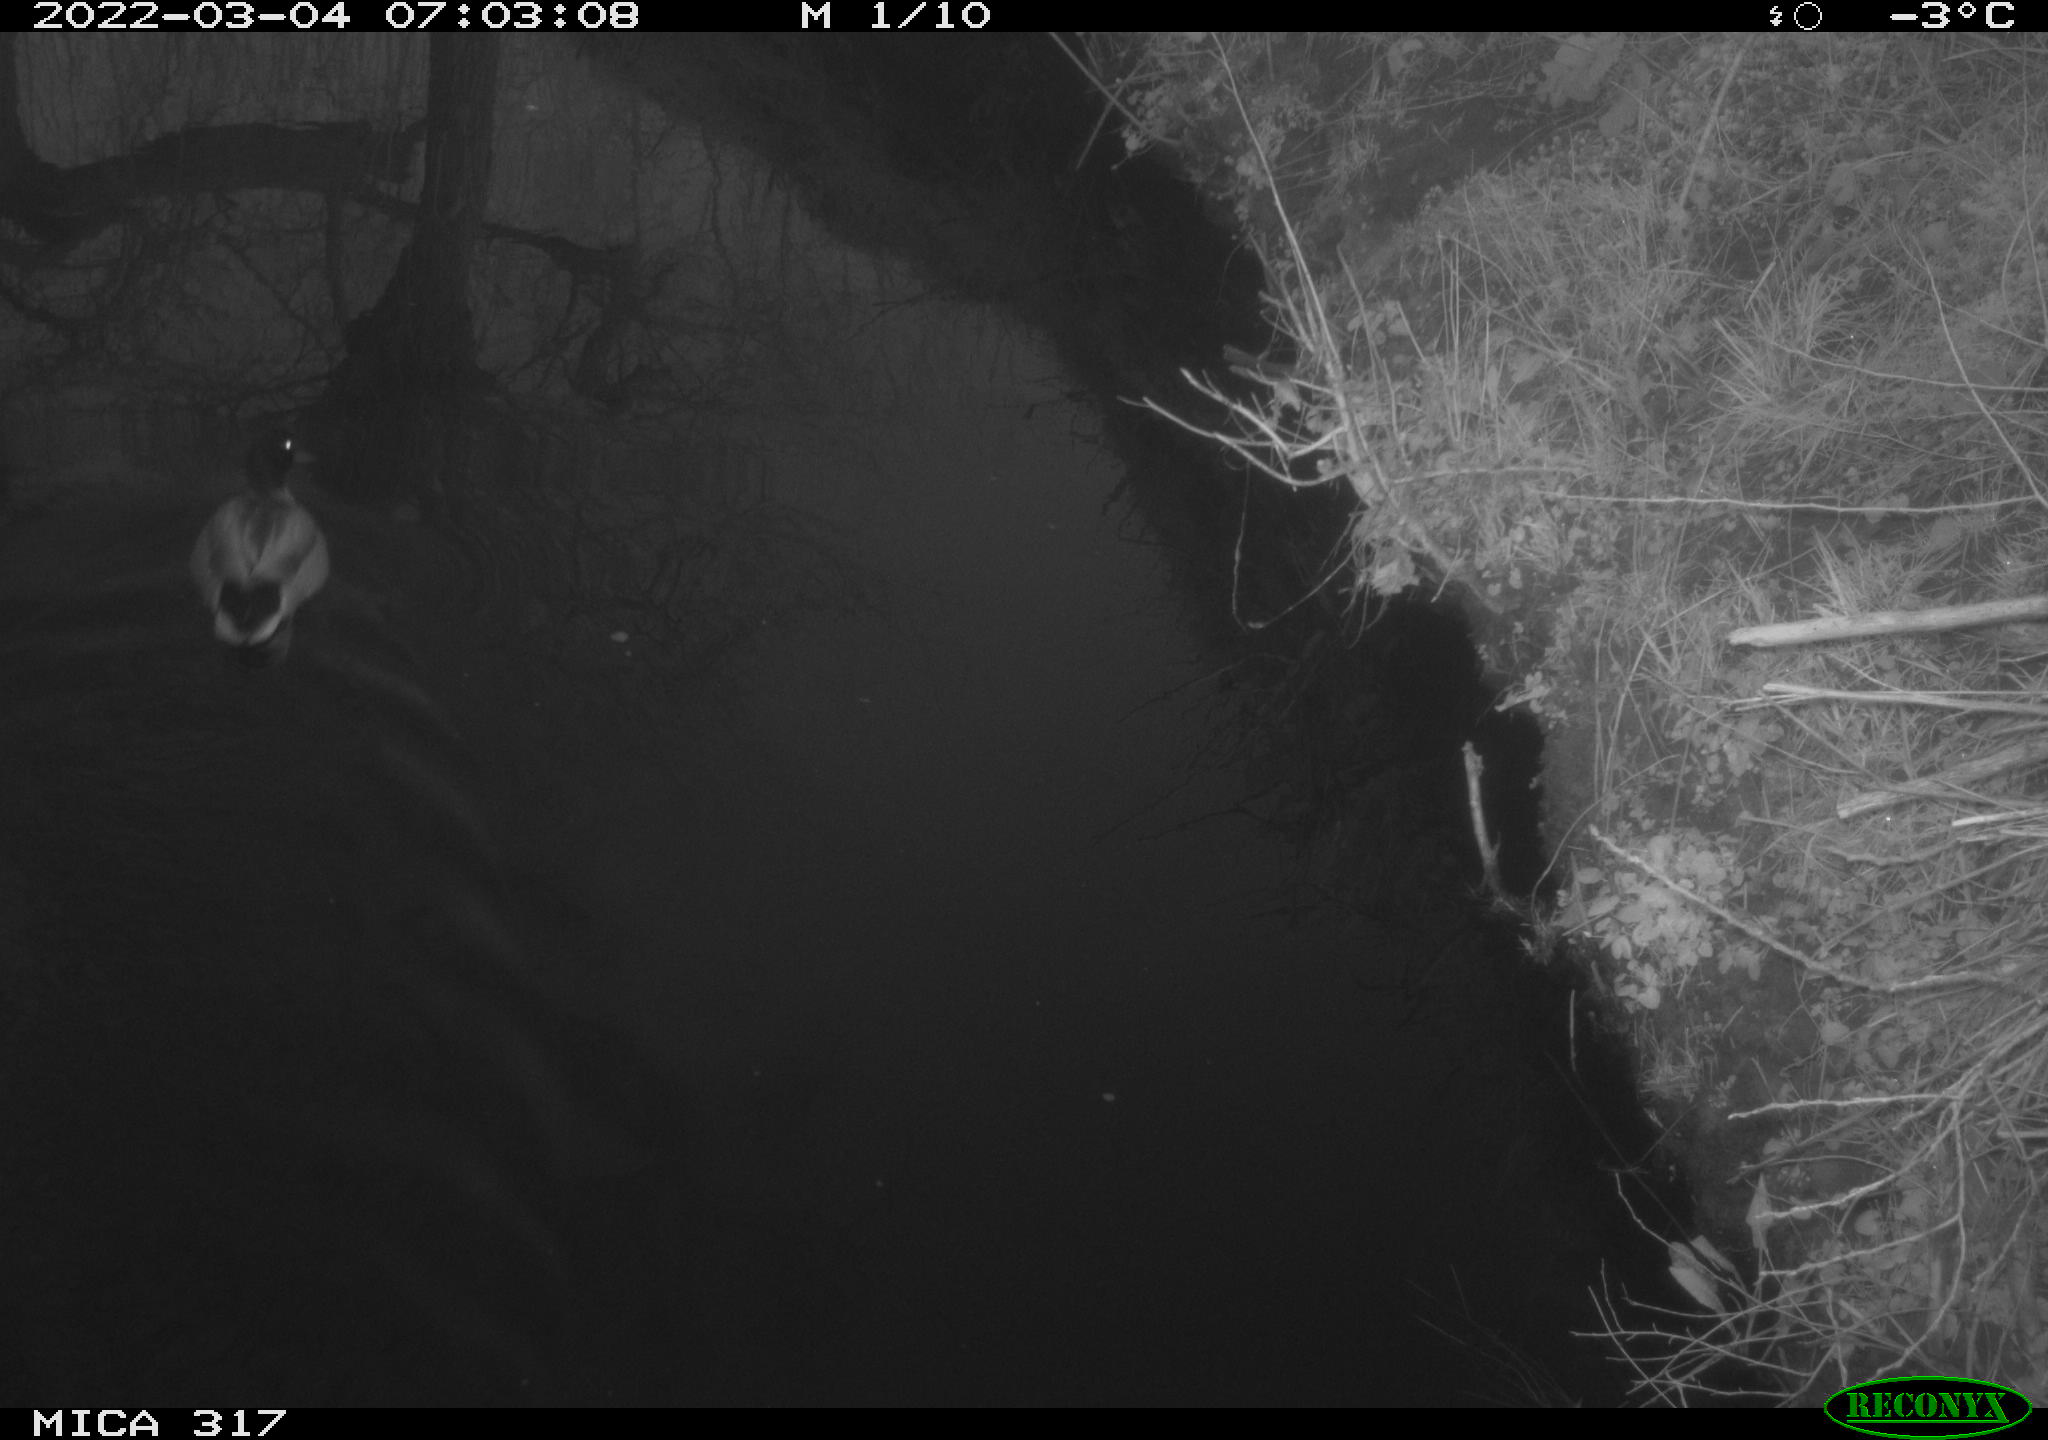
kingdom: Animalia
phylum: Chordata
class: Aves
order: Anseriformes
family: Anatidae
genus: Anas
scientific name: Anas platyrhynchos
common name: Mallard
